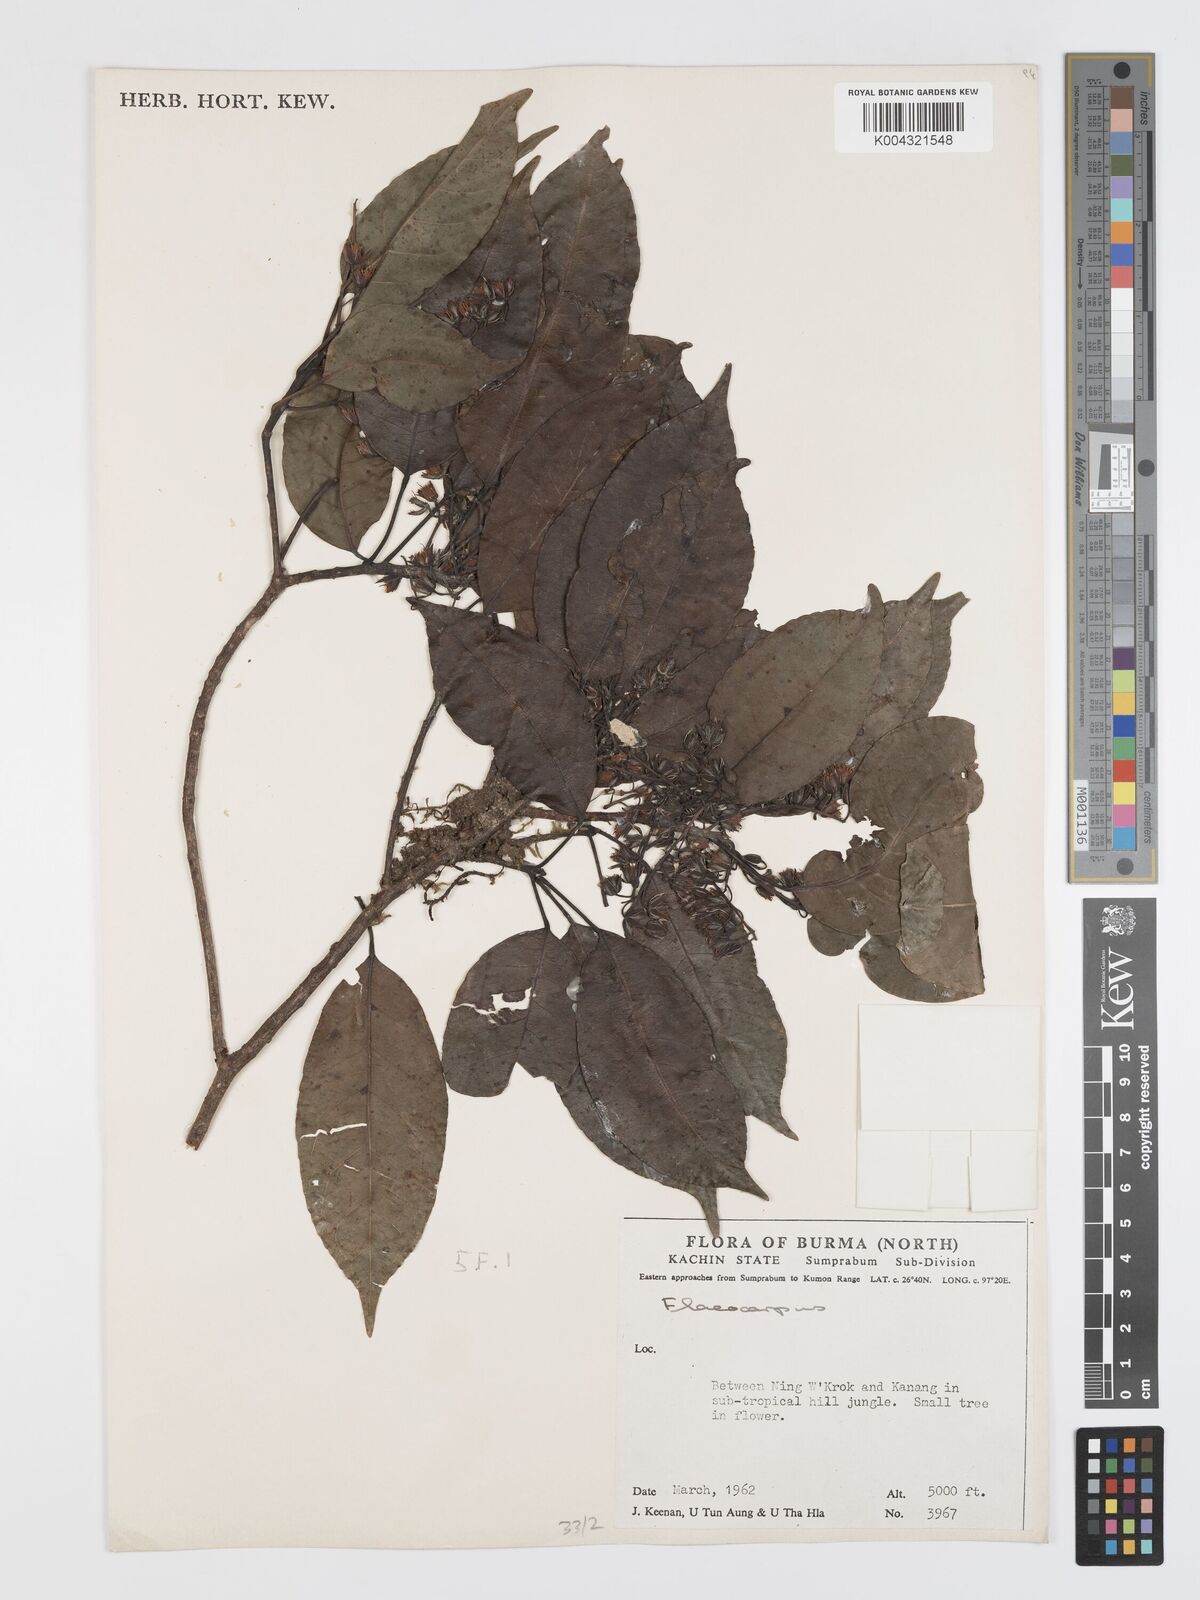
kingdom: Plantae
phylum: Tracheophyta
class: Magnoliopsida
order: Oxalidales
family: Elaeocarpaceae
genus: Elaeocarpus
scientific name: Elaeocarpus prunifolius
